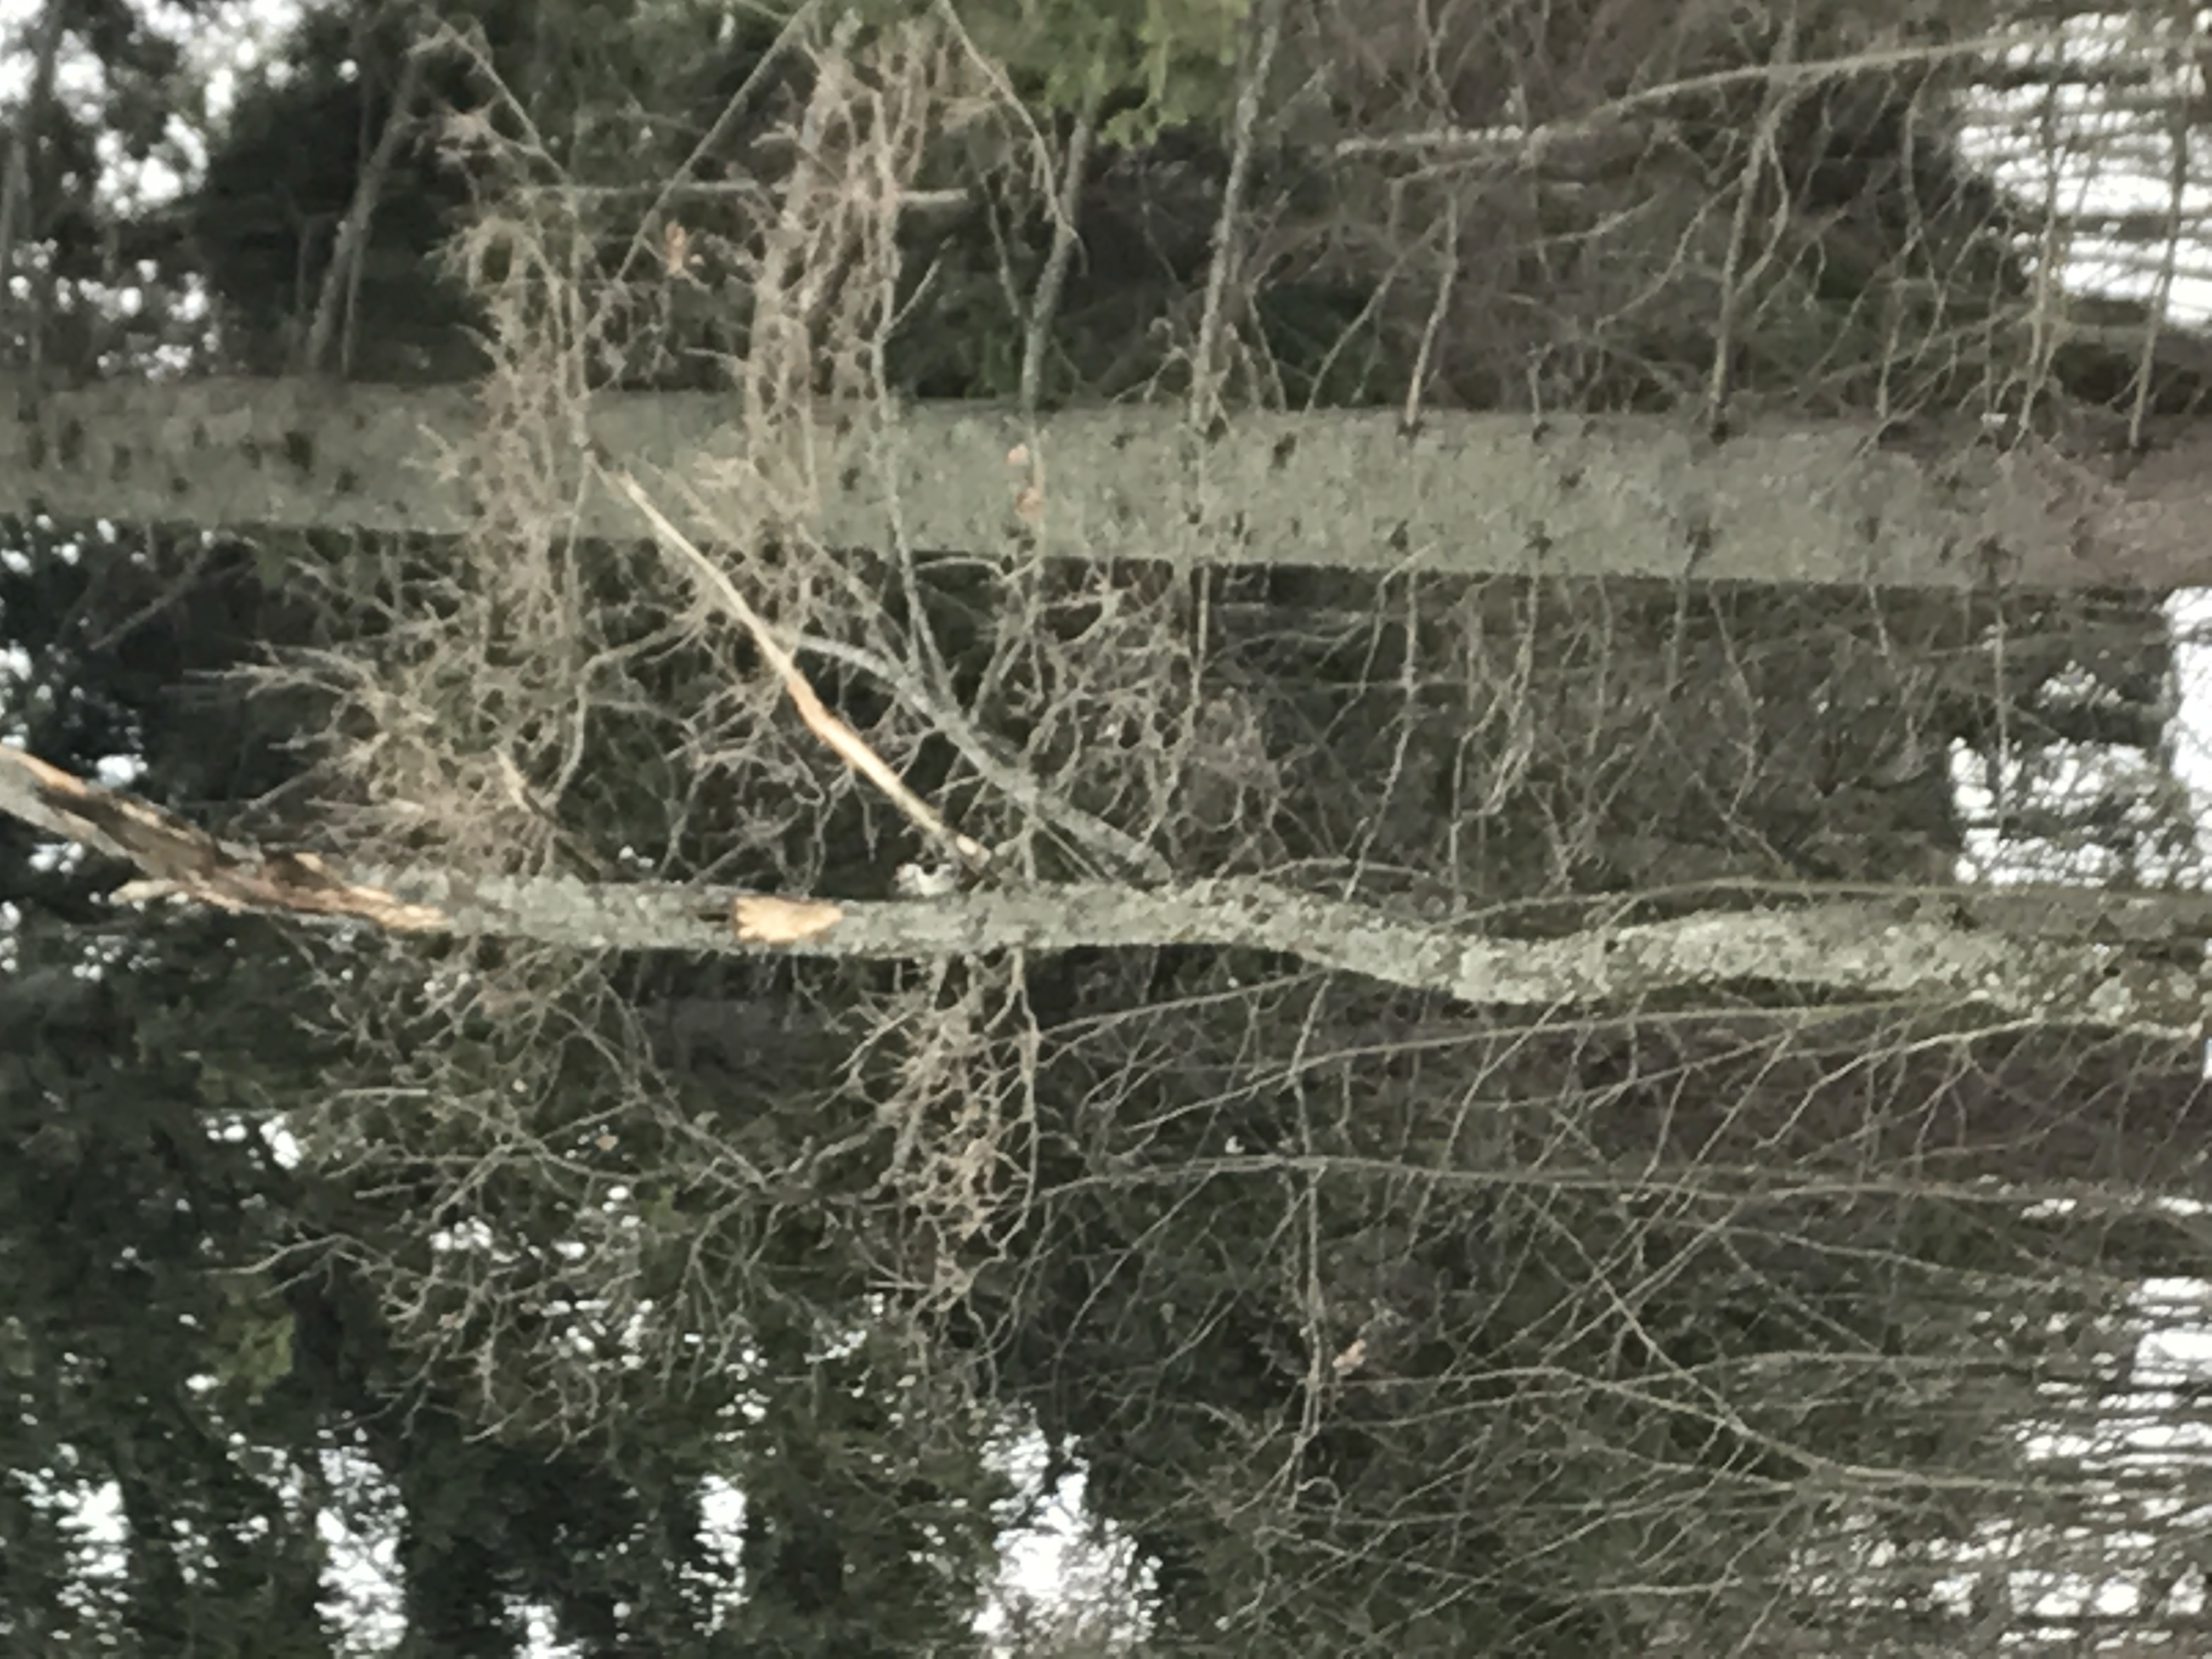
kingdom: Animalia
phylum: Chordata
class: Aves
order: Piciformes
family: Picidae
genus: Dendrocopos
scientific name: Dendrocopos leucotos
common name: White-backed woodpecker
